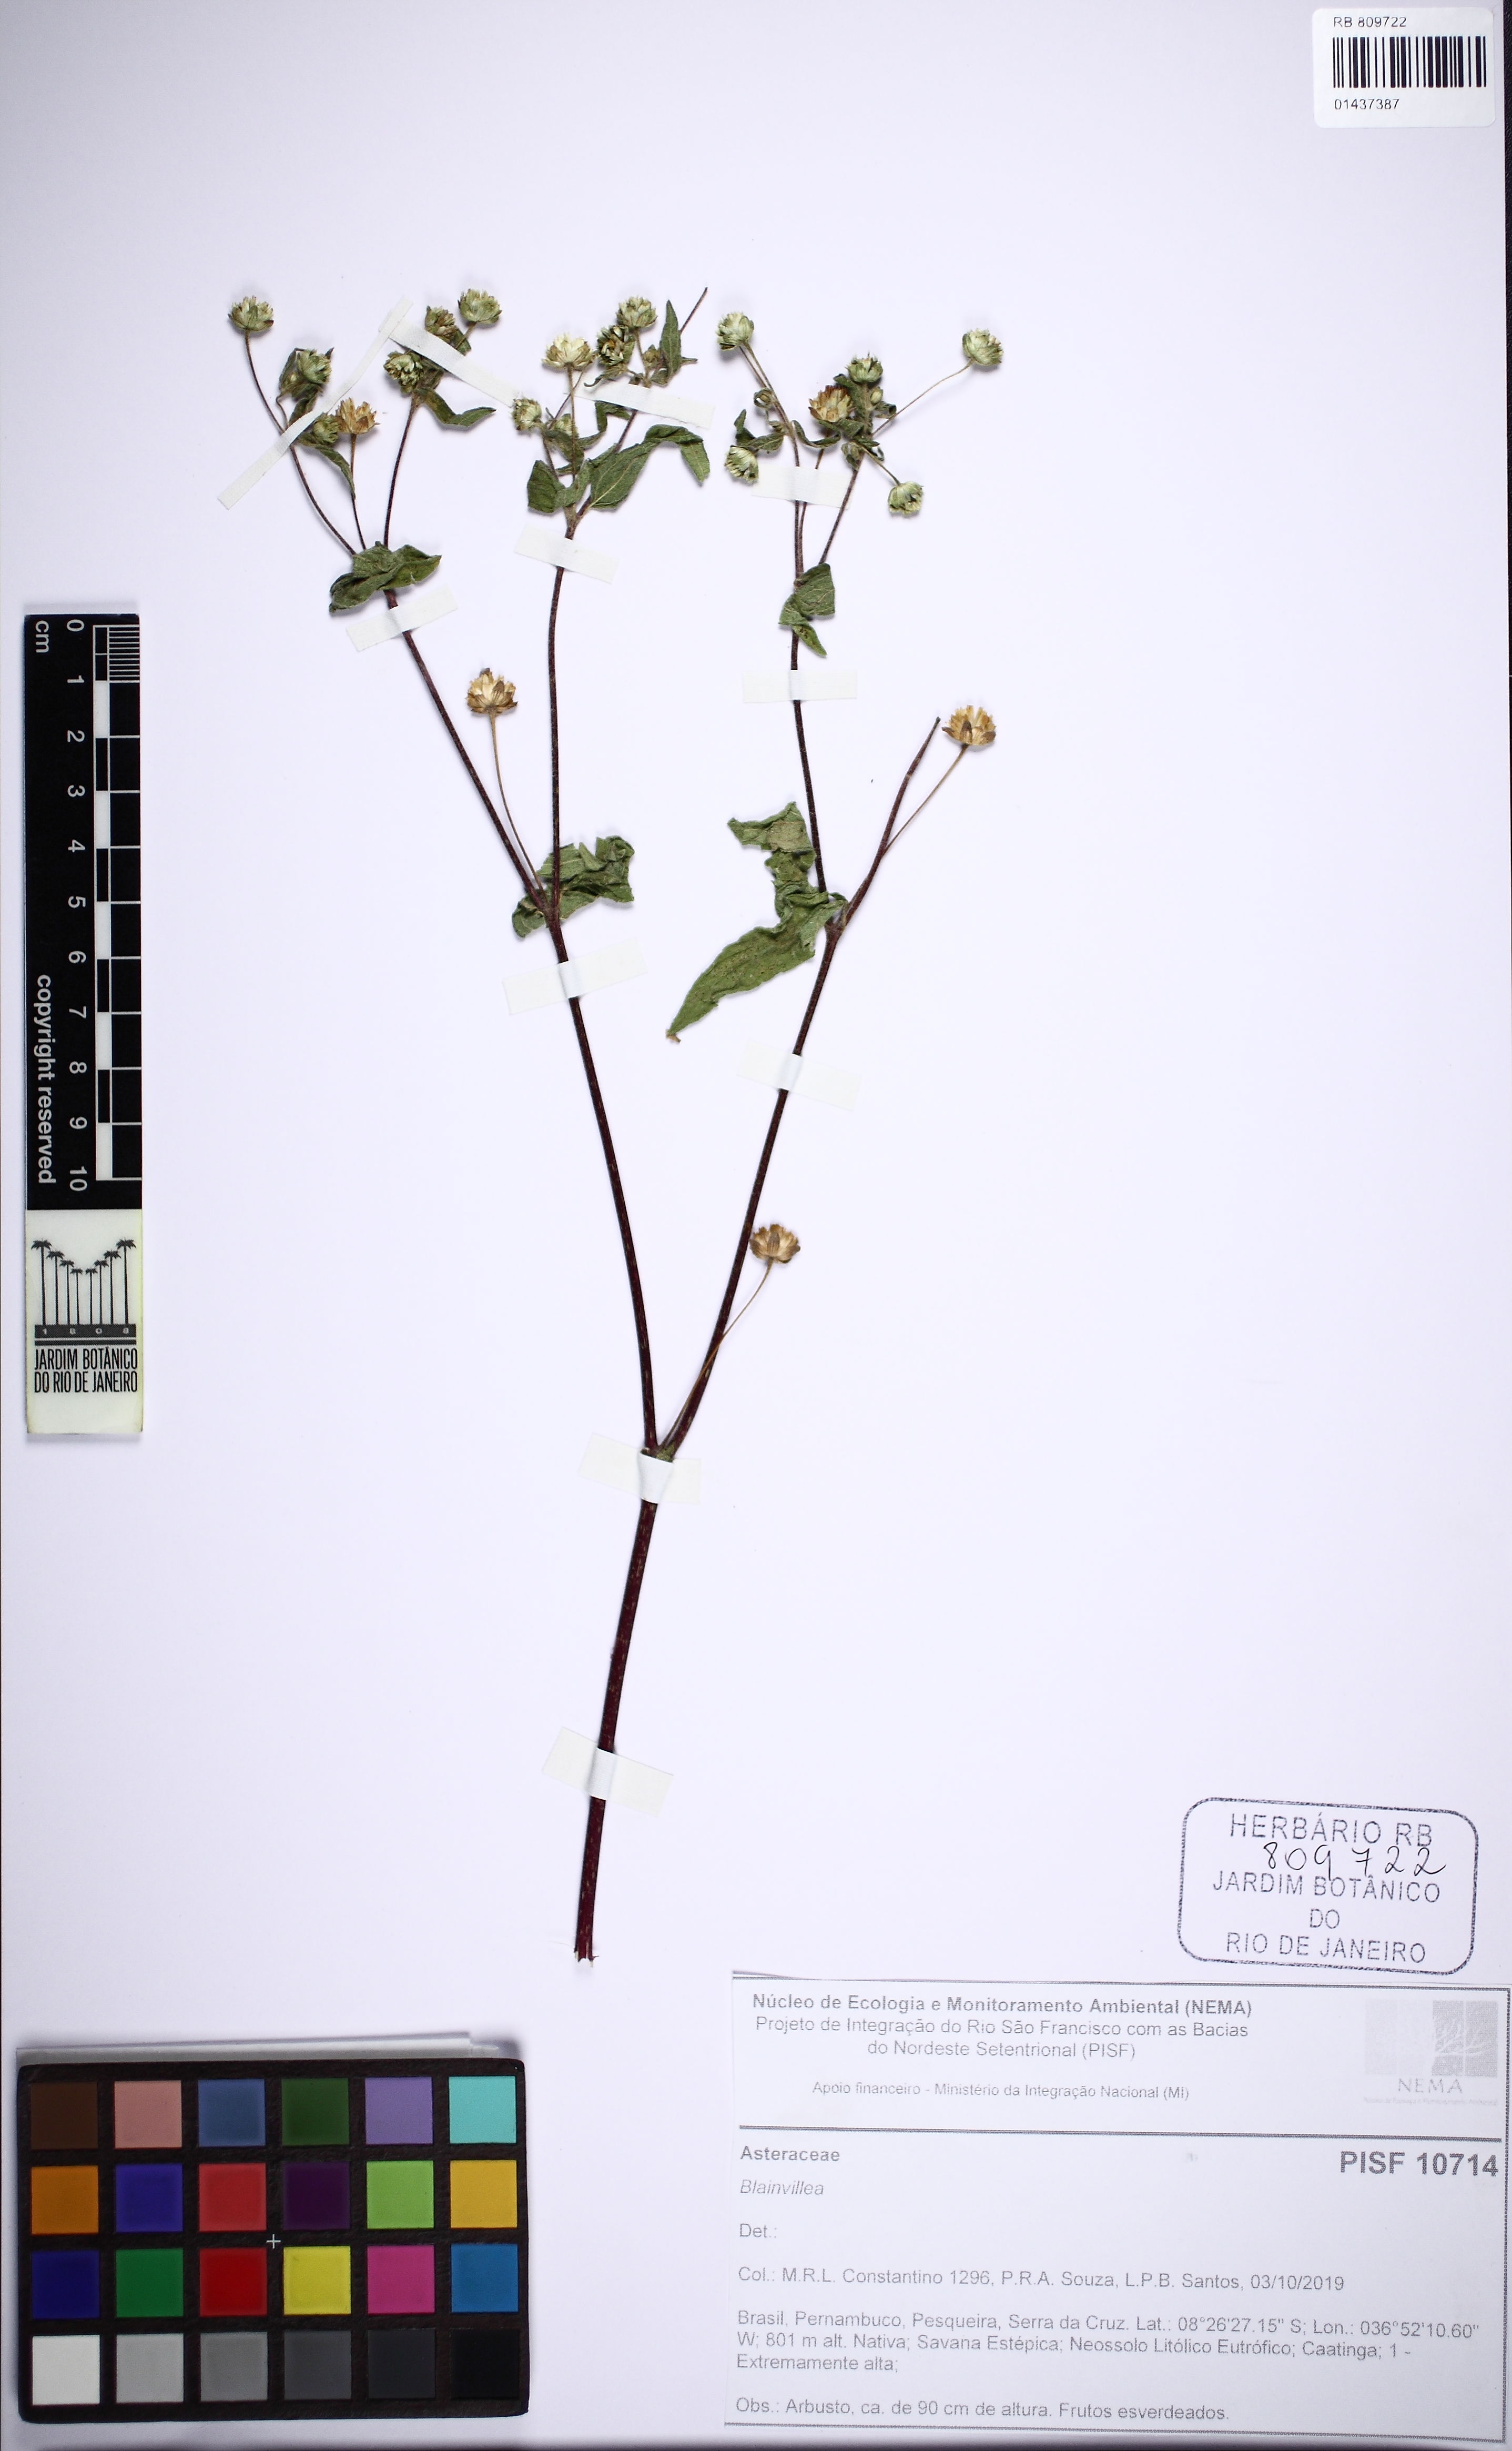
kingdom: Plantae
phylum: Tracheophyta
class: Magnoliopsida
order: Asterales
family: Asteraceae
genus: Blainvillea
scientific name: Blainvillea
